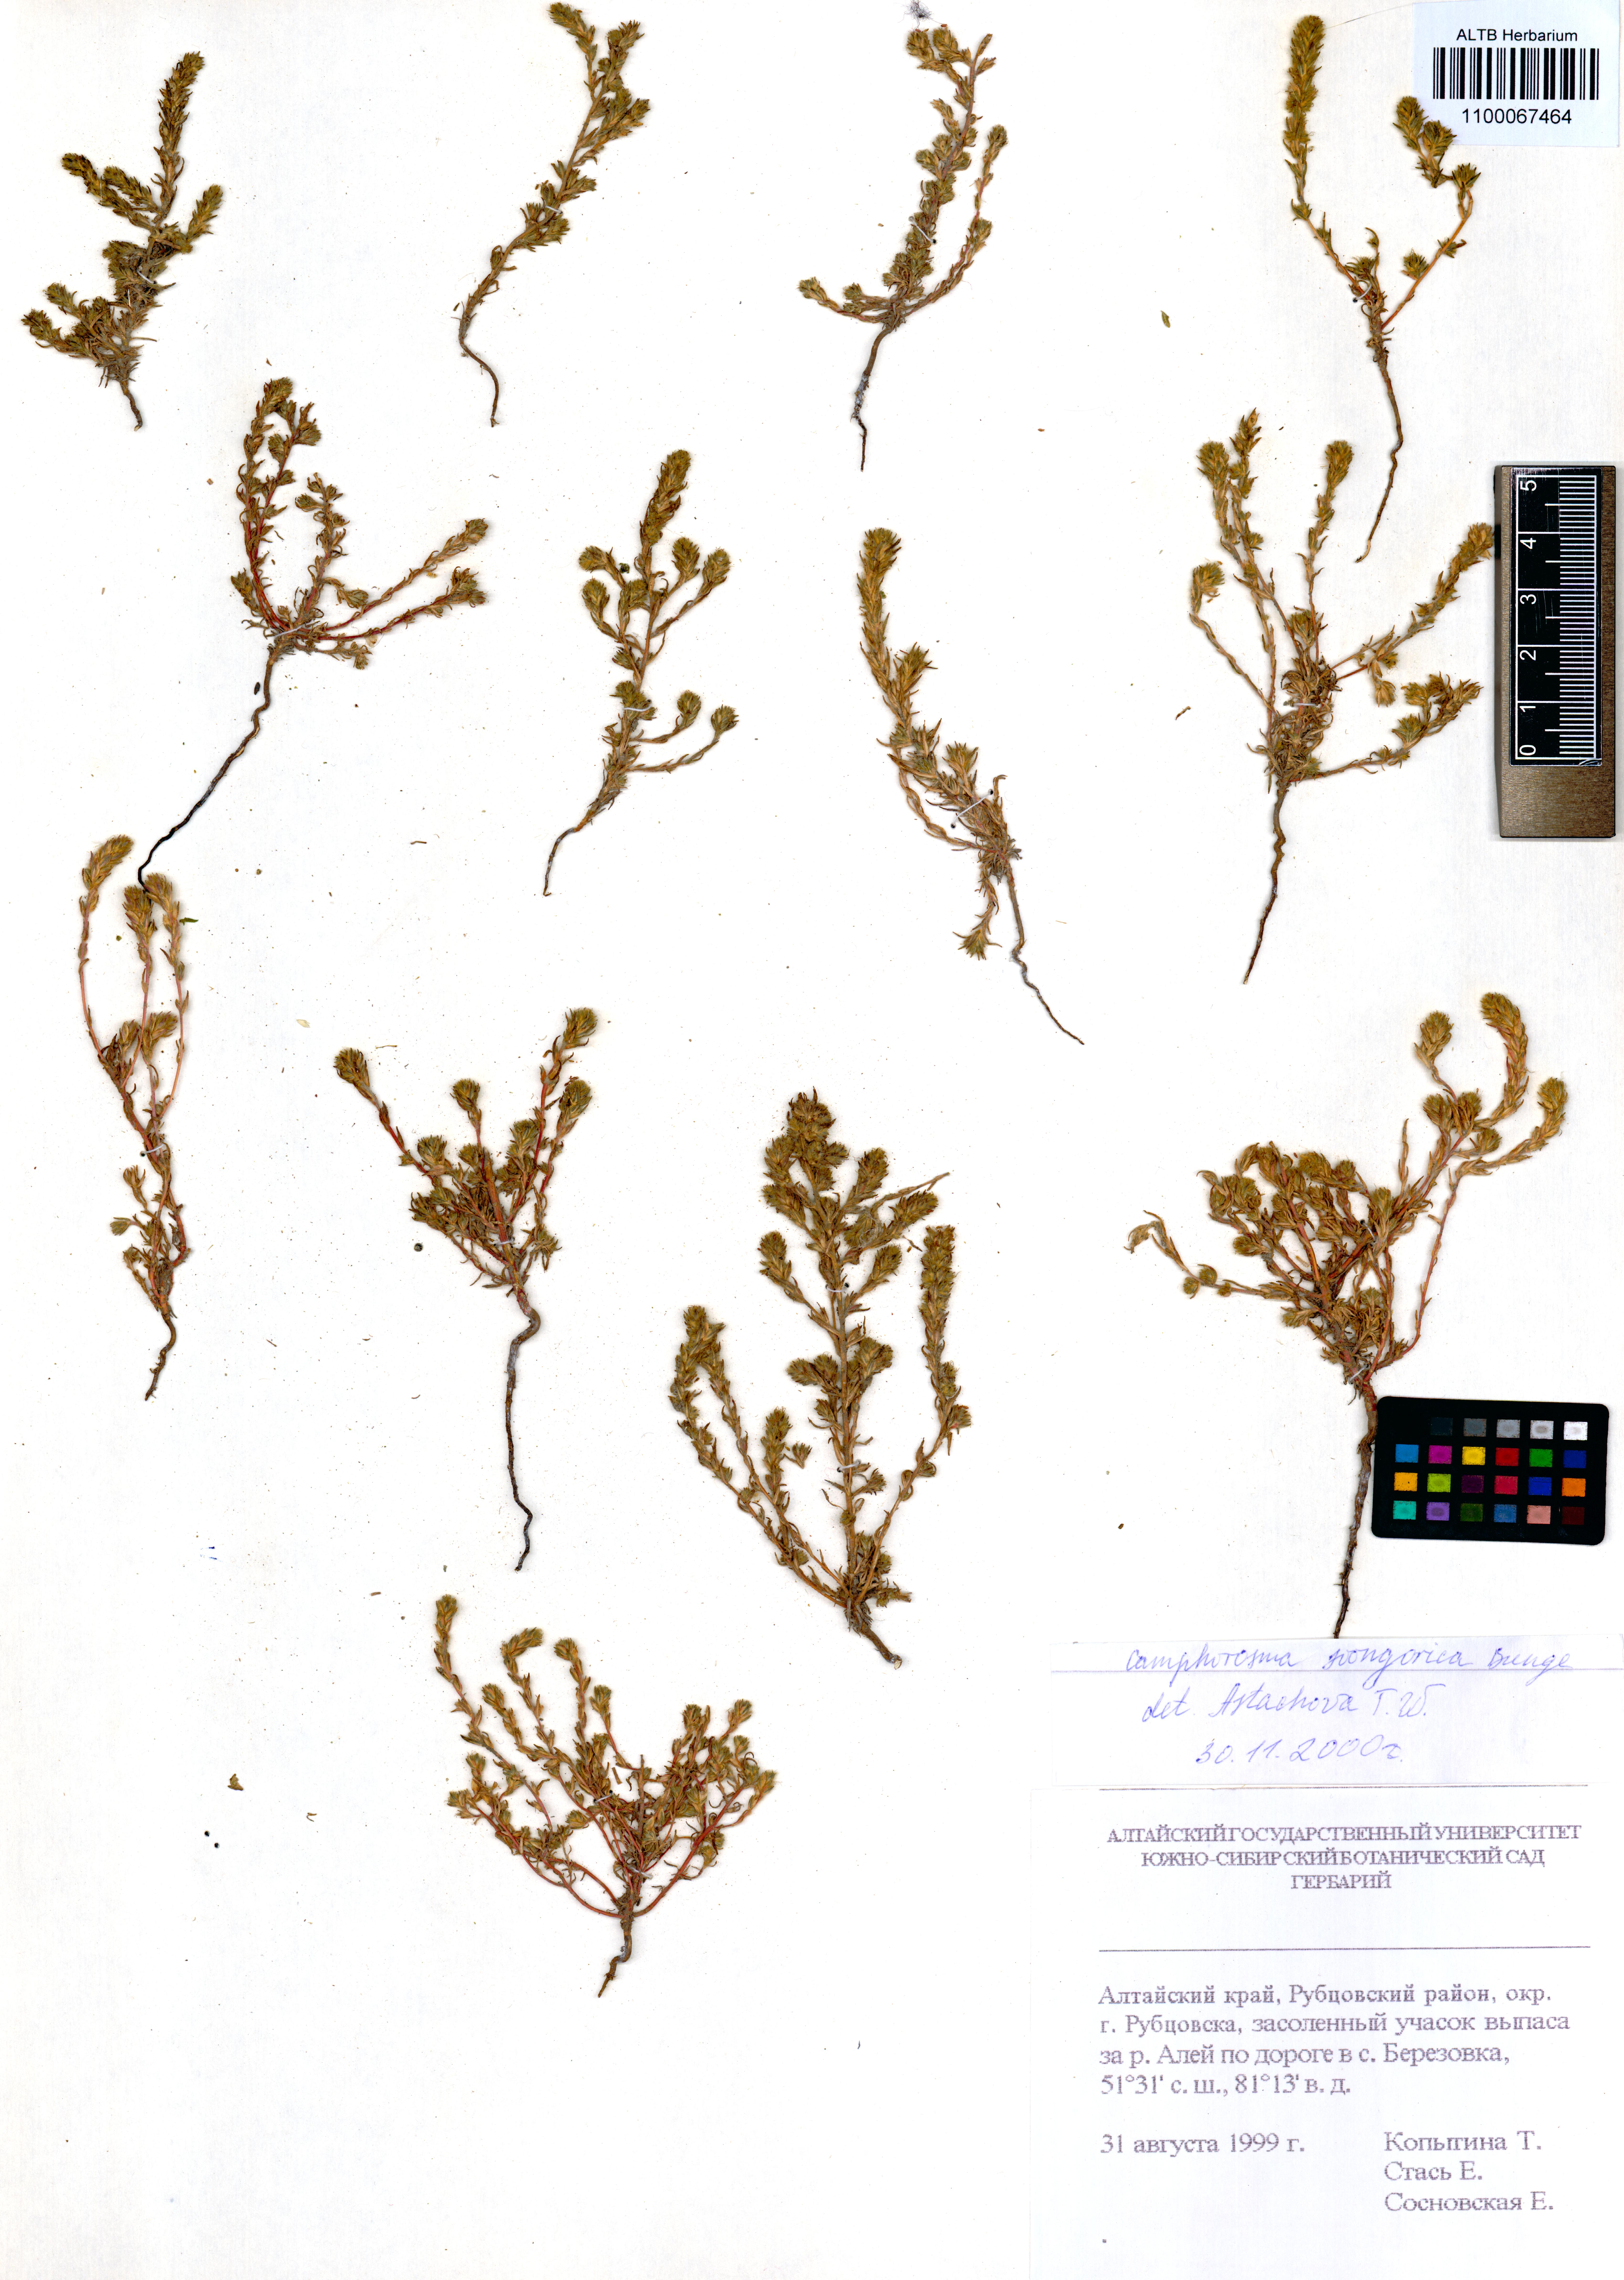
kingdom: Plantae
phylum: Tracheophyta
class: Magnoliopsida
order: Caryophyllales
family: Amaranthaceae
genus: Camphorosma
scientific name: Camphorosma songorica
